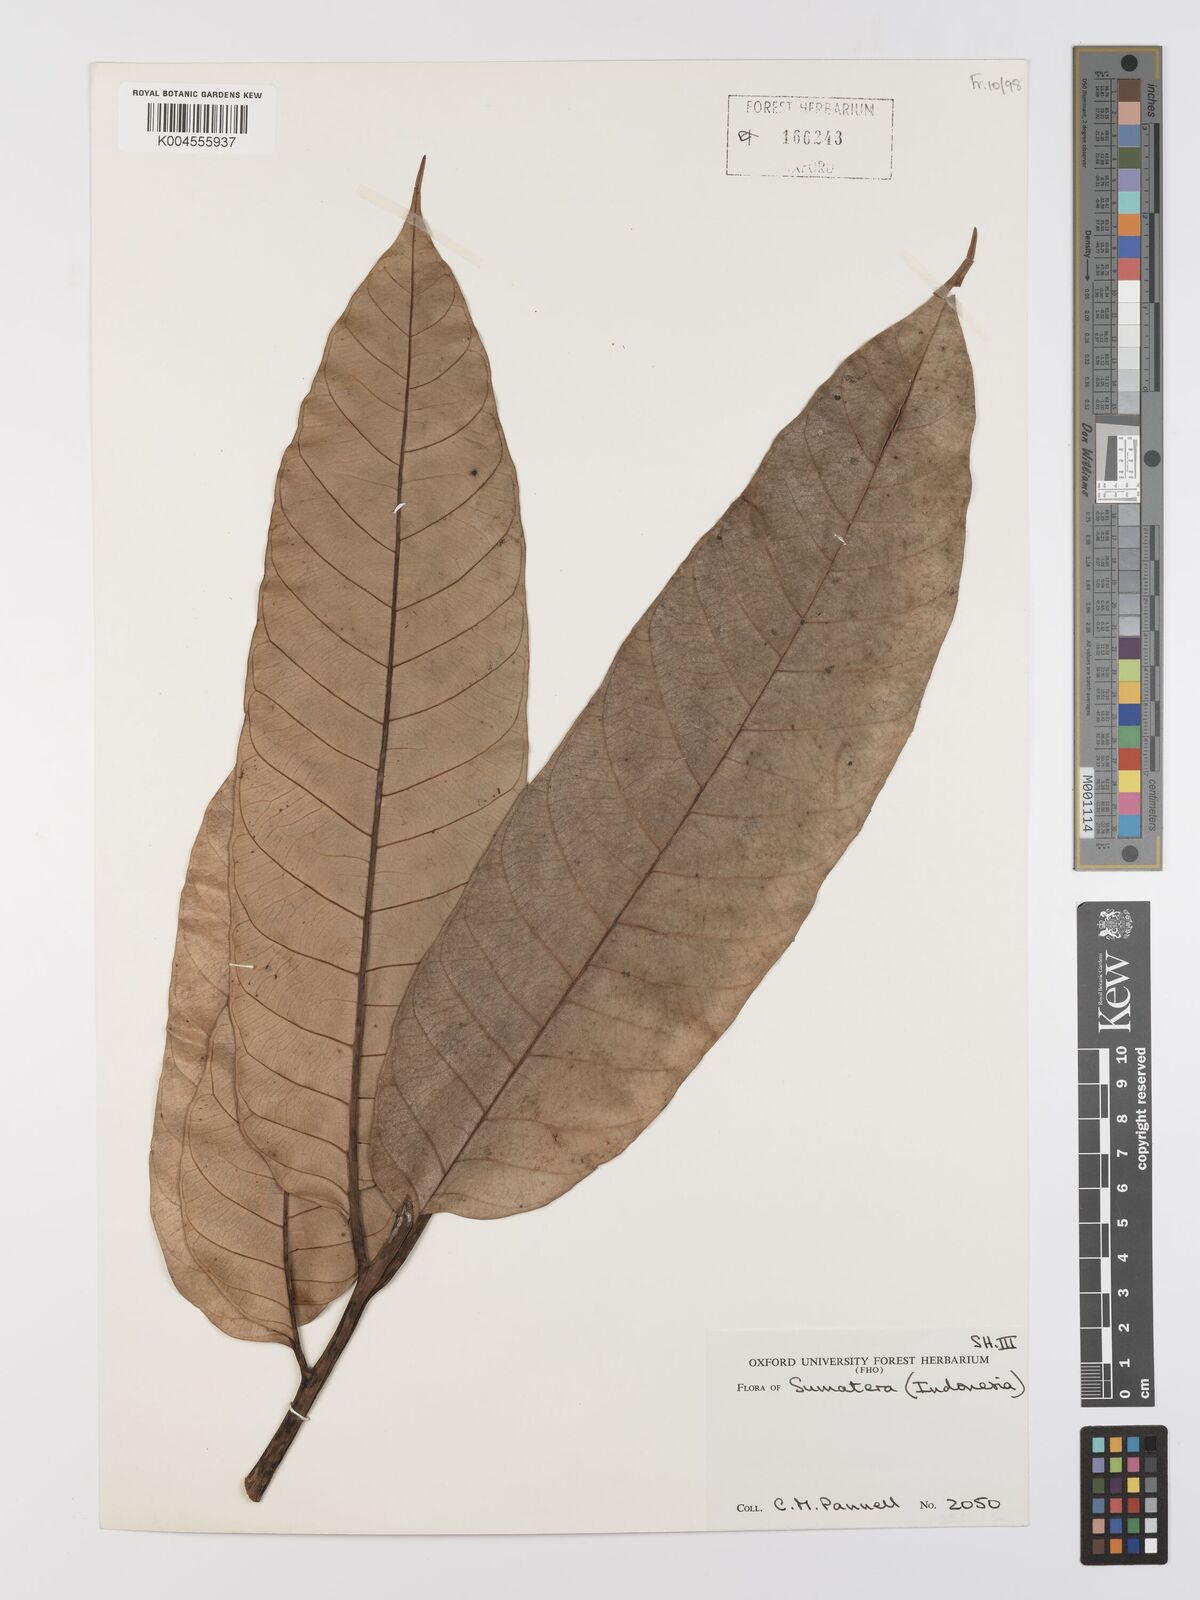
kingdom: Plantae
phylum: Tracheophyta
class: Magnoliopsida
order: Rosales
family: Moraceae
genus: Artocarpus
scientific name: Artocarpus anisophyllus
